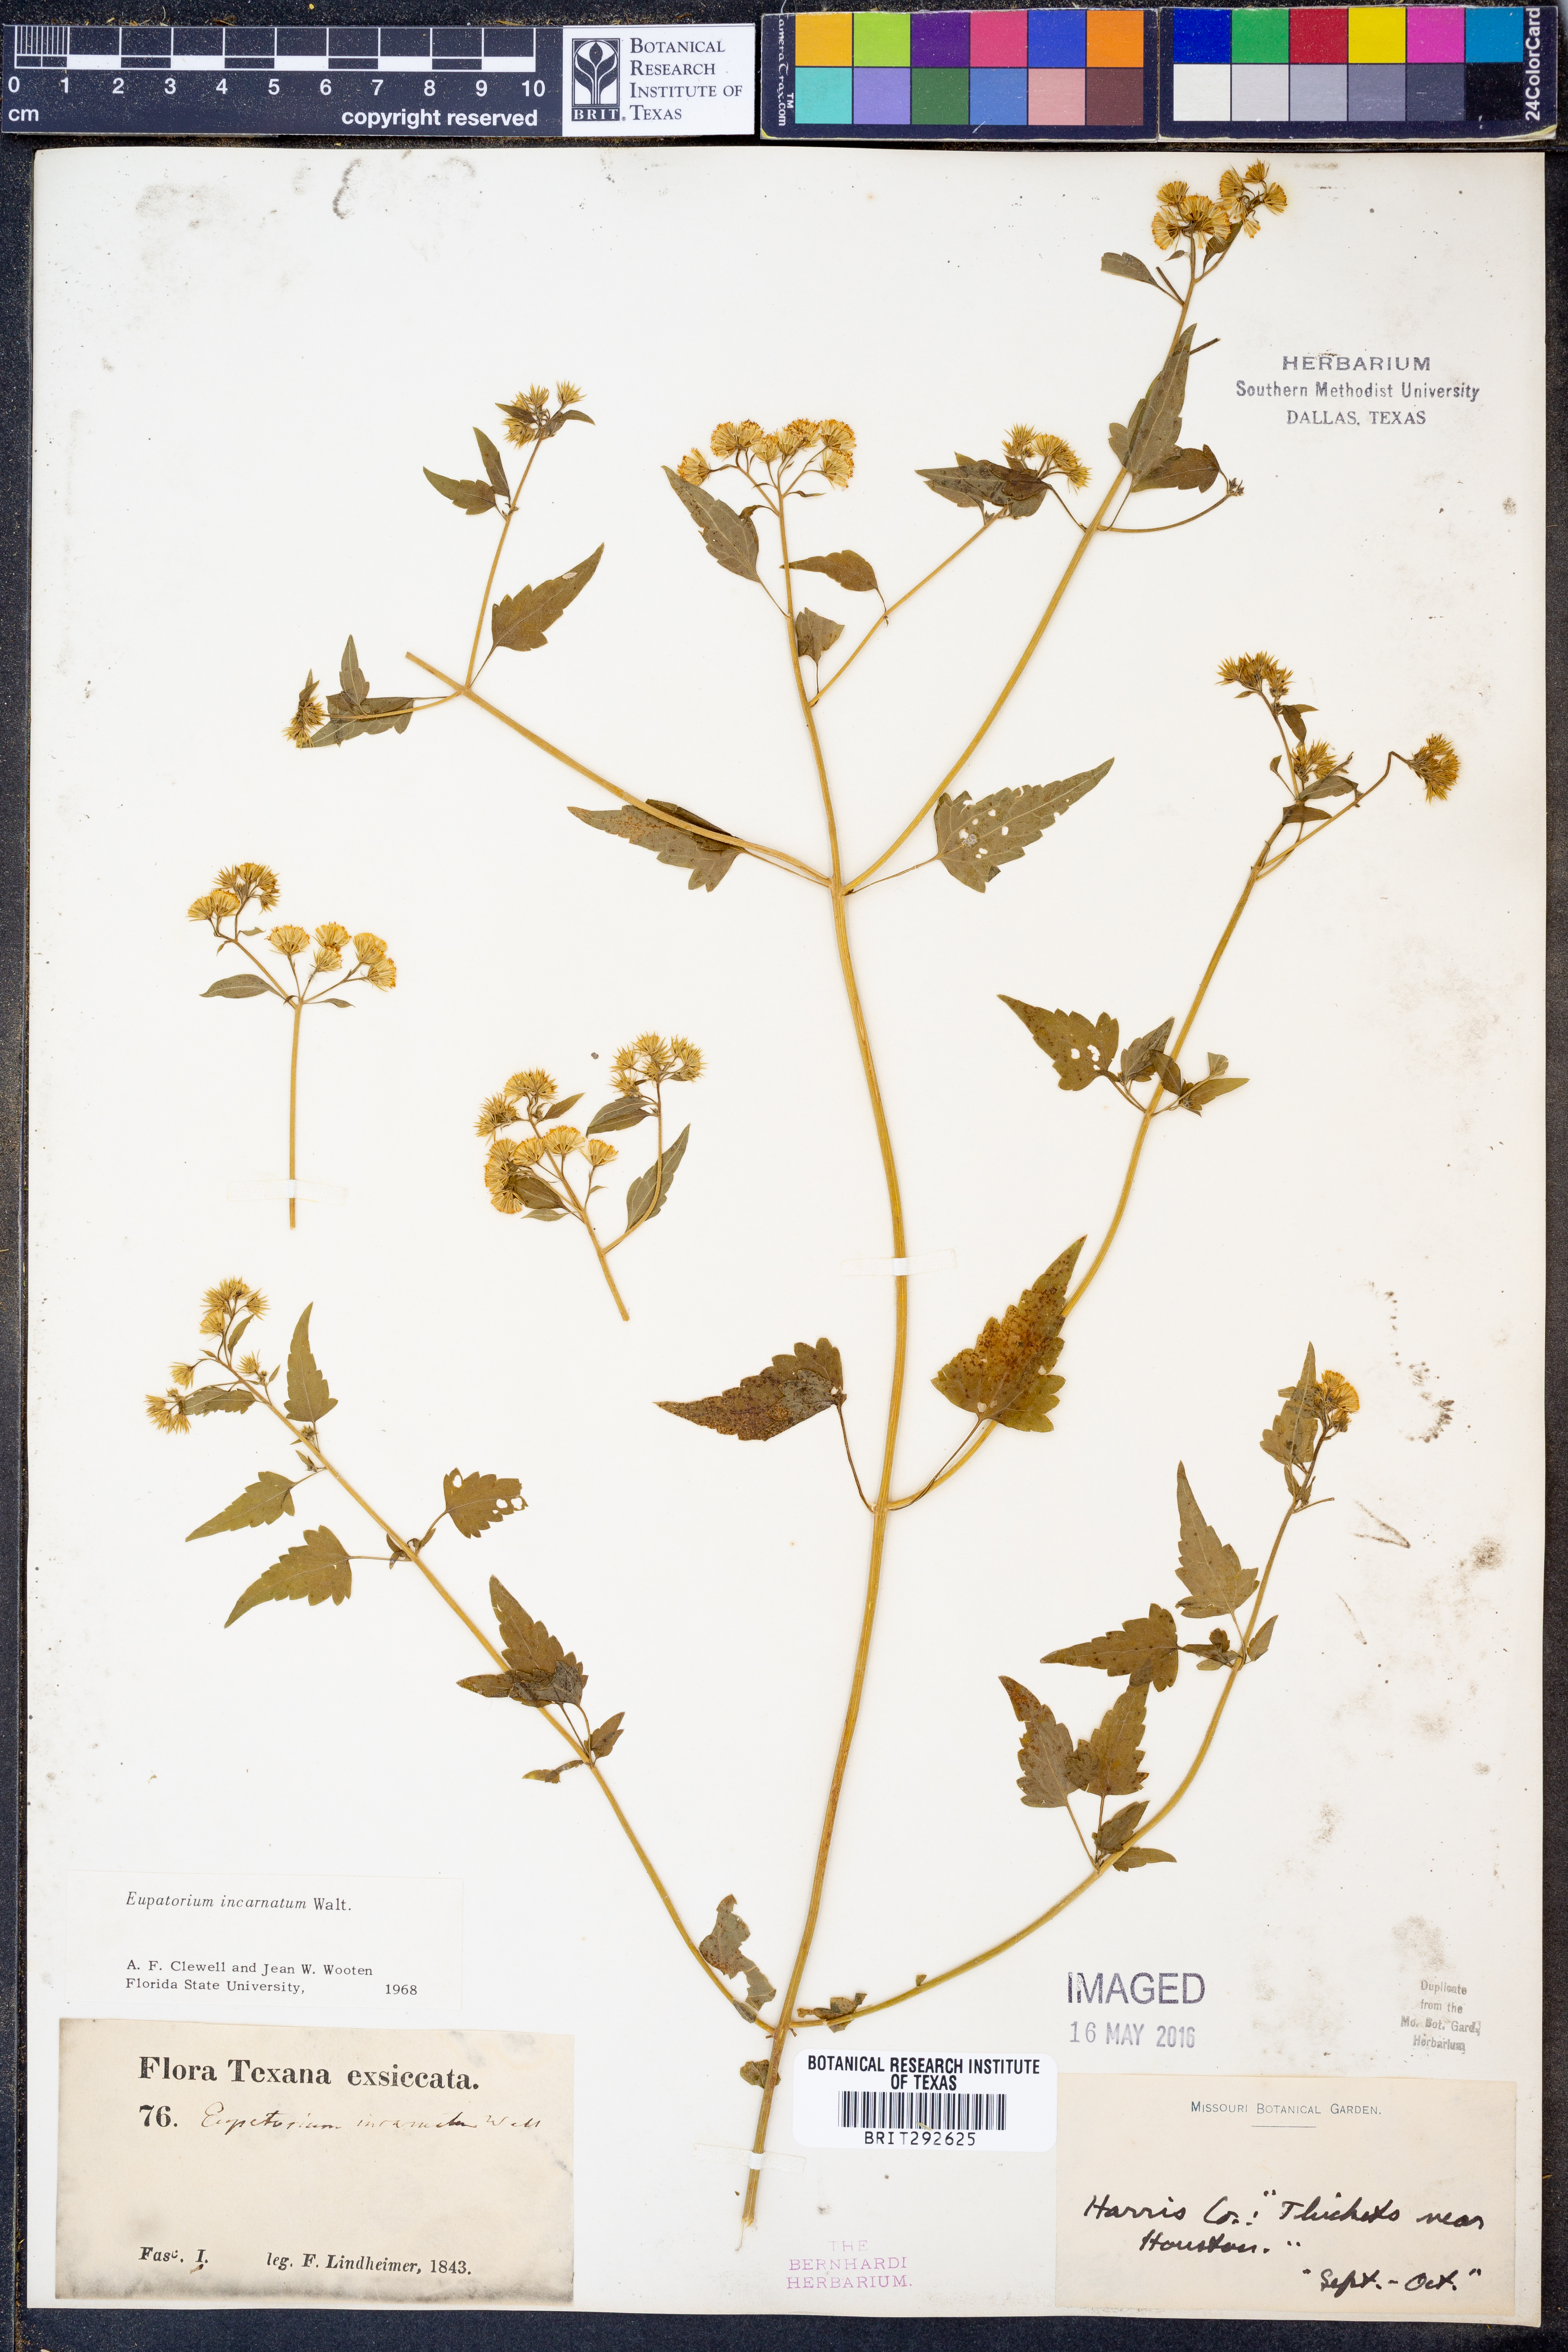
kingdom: Plantae
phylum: Tracheophyta
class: Magnoliopsida
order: Asterales
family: Asteraceae
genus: Fleischmannia
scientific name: Fleischmannia incarnata
